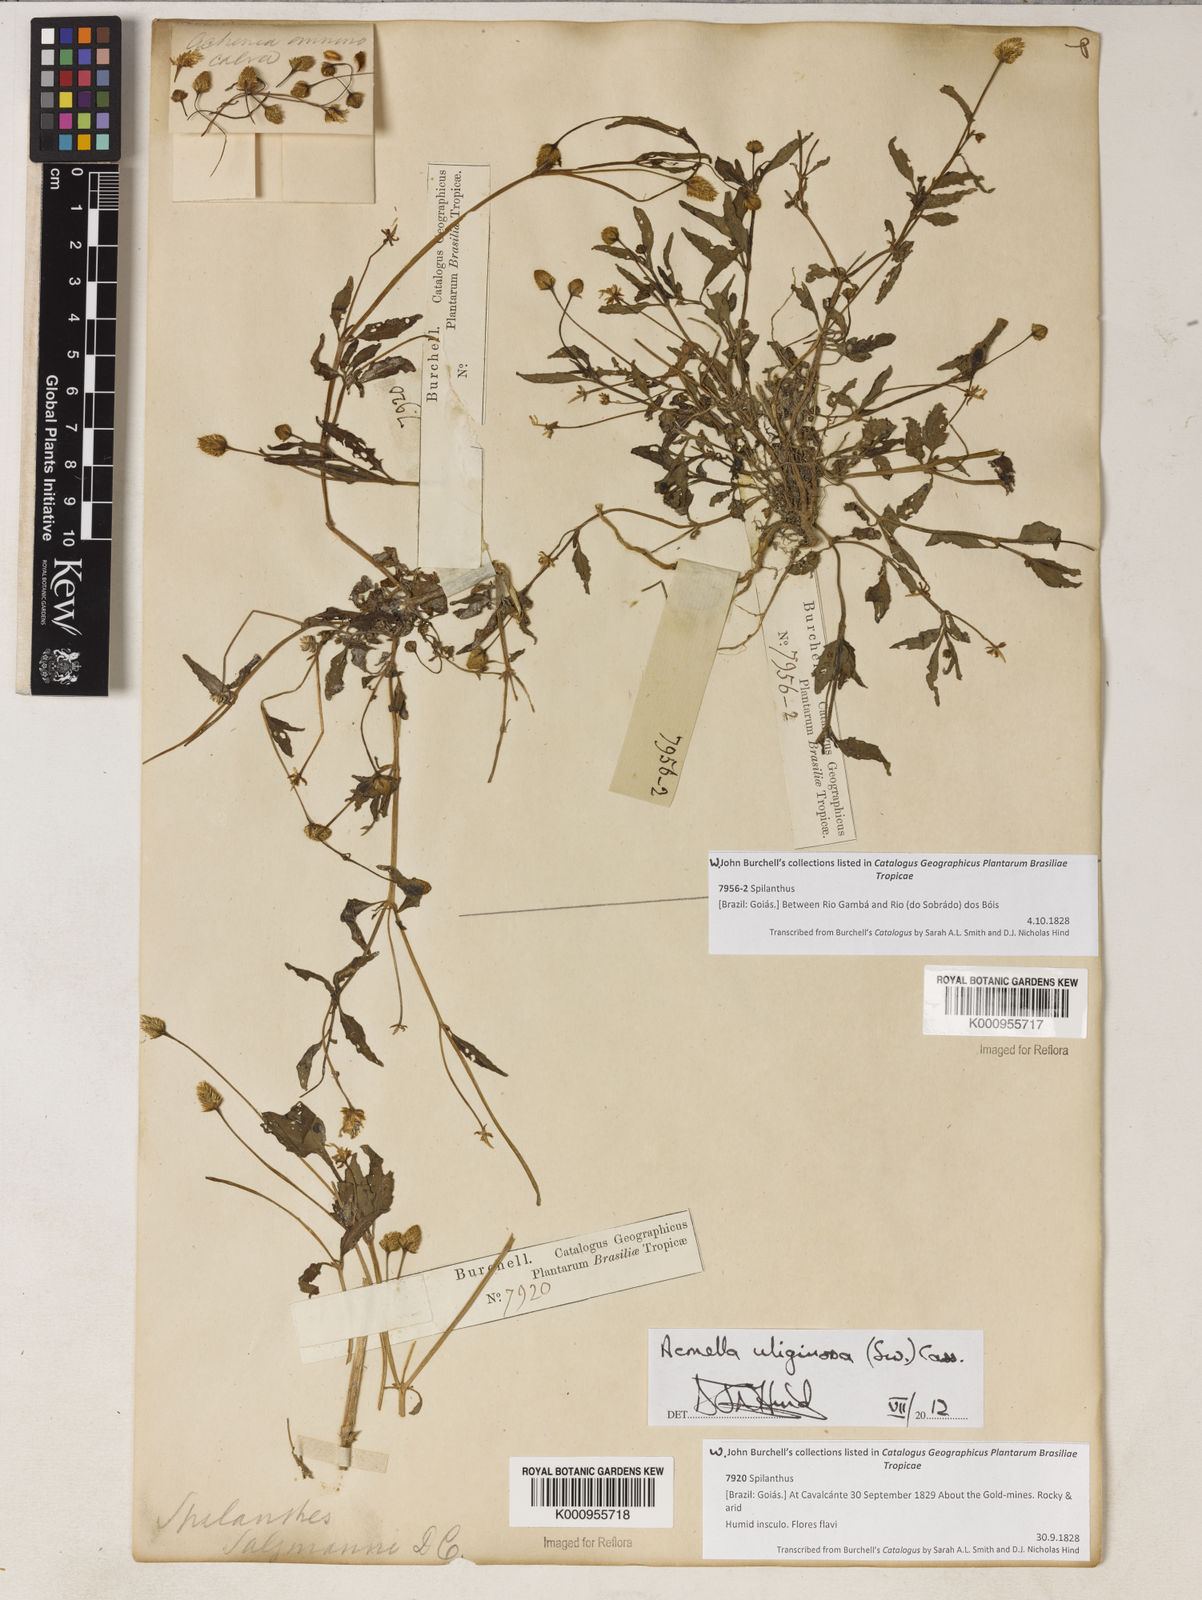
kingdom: Plantae
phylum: Tracheophyta
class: Magnoliopsida
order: Asterales
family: Asteraceae
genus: Acmella
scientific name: Acmella uliginosa
